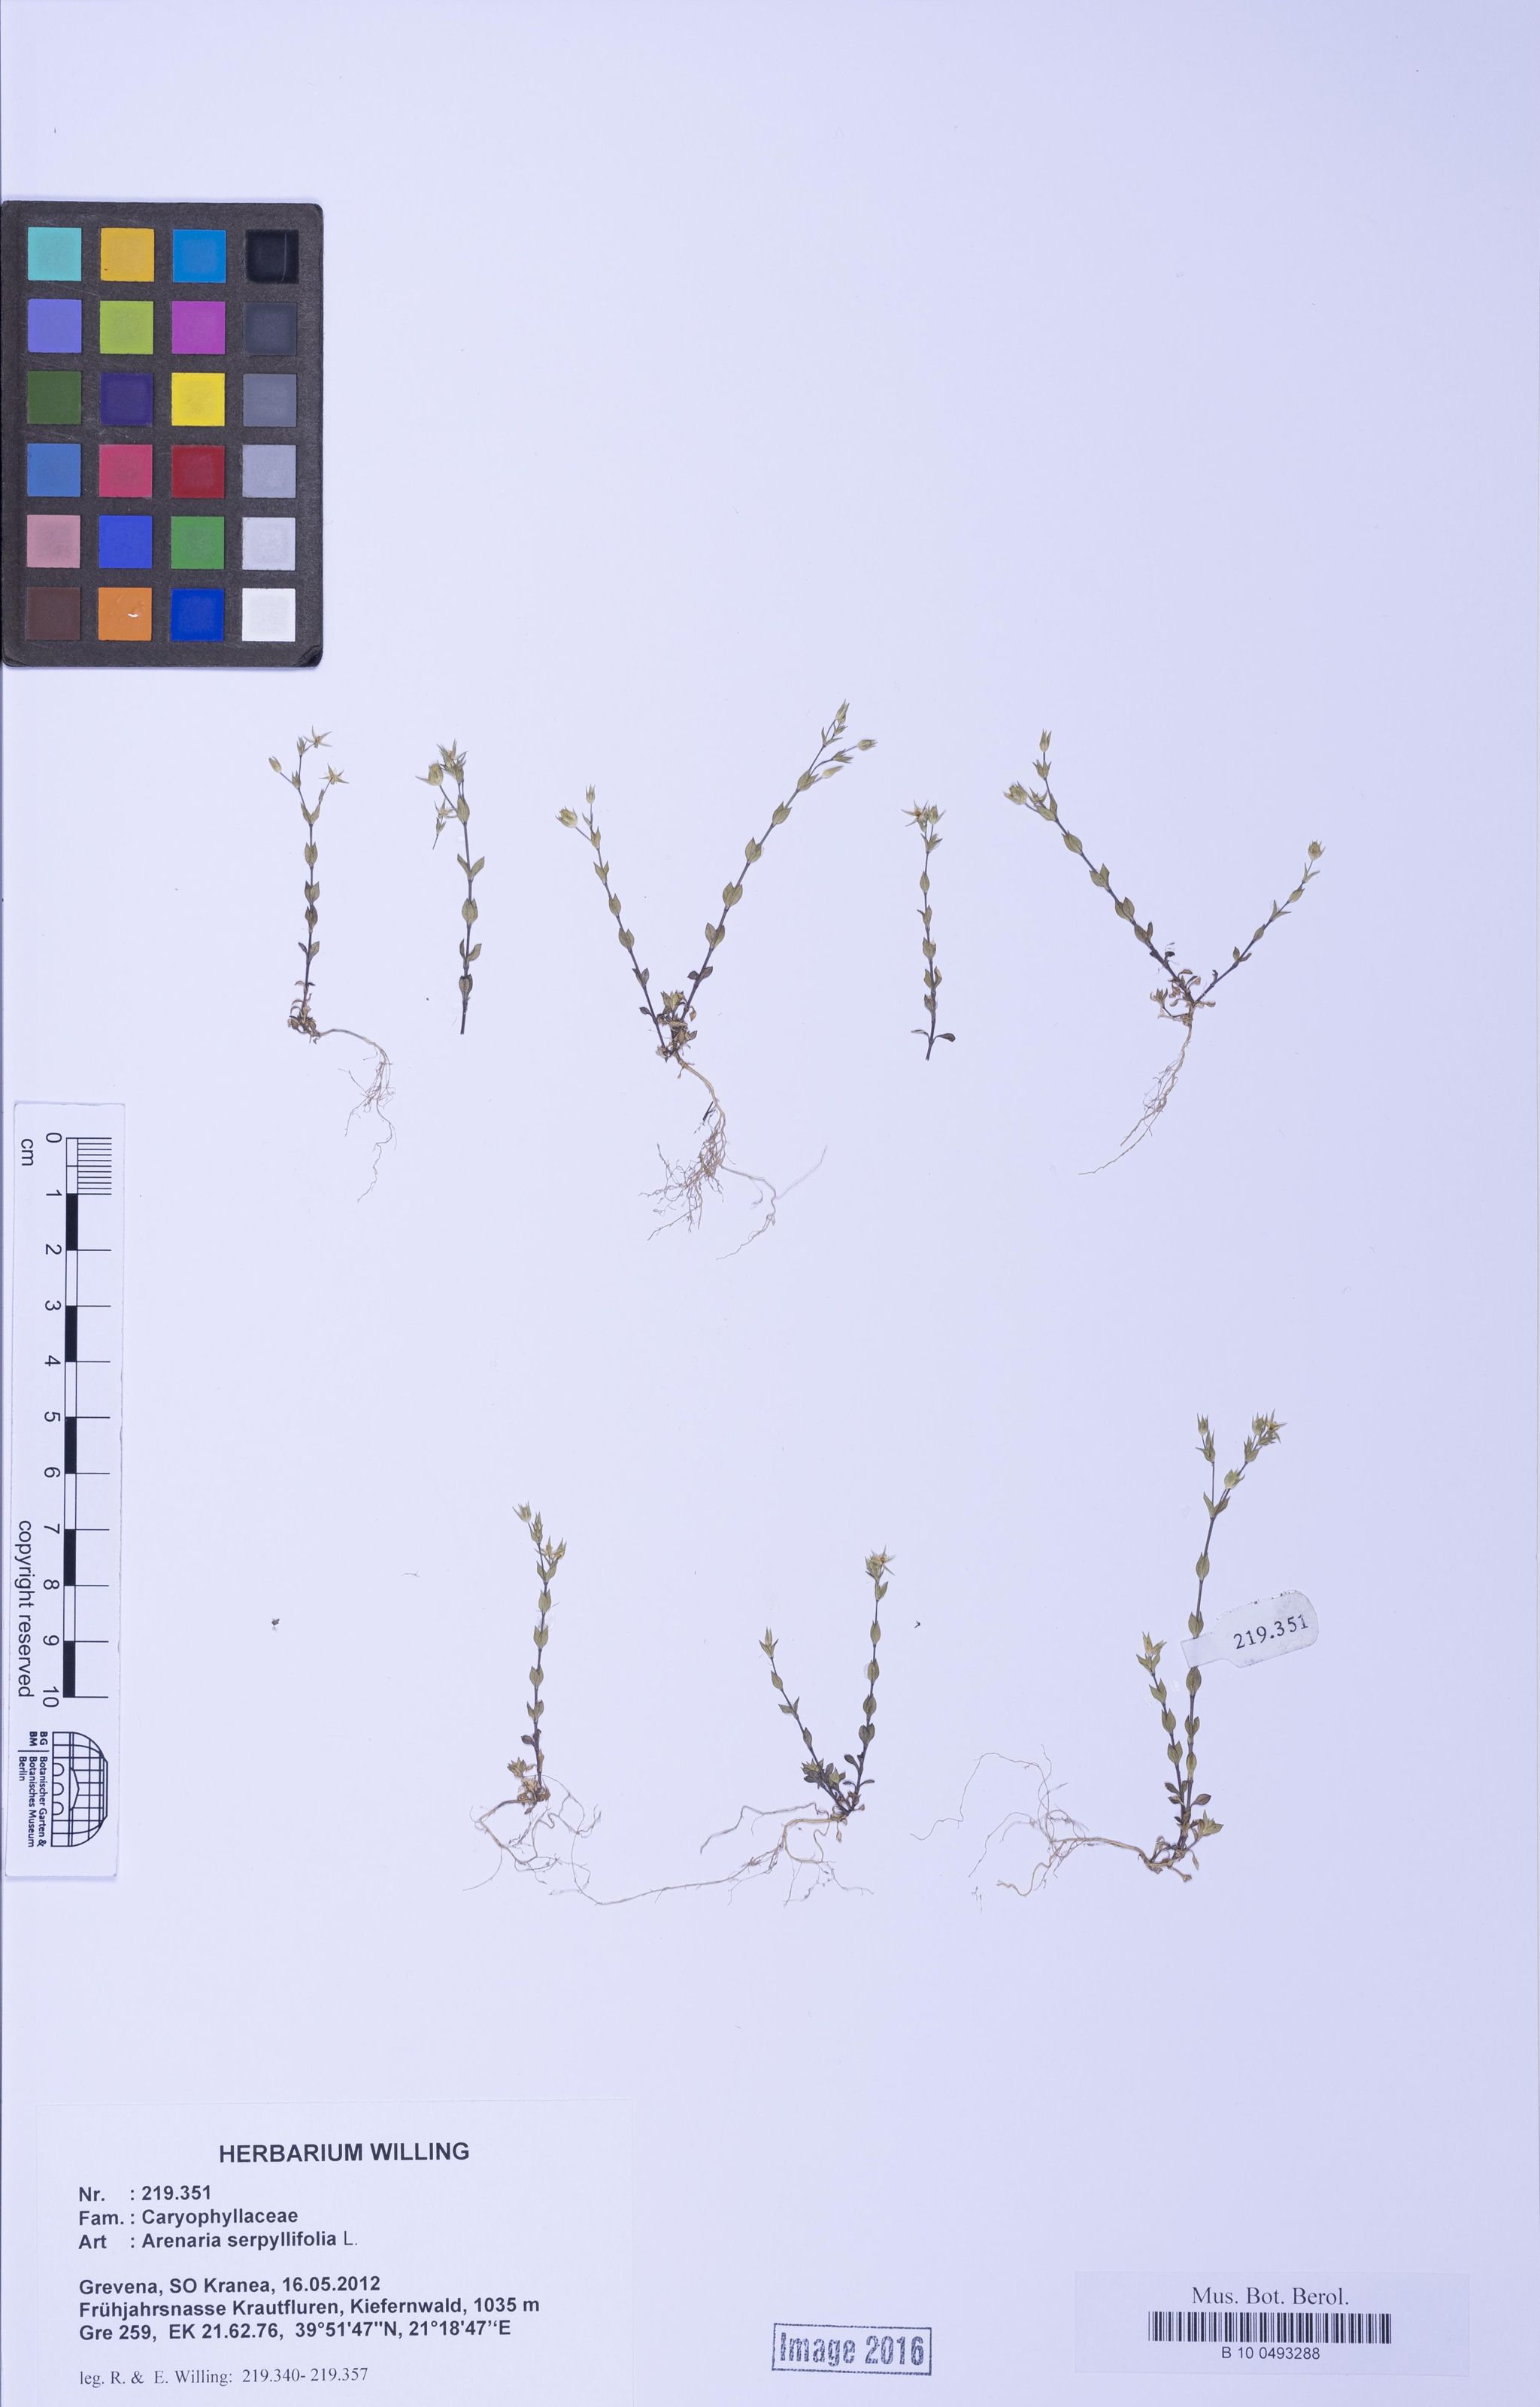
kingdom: Plantae
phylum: Tracheophyta
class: Magnoliopsida
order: Caryophyllales
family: Caryophyllaceae
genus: Arenaria
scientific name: Arenaria serpyllifolia
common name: Thyme-leaved sandwort
